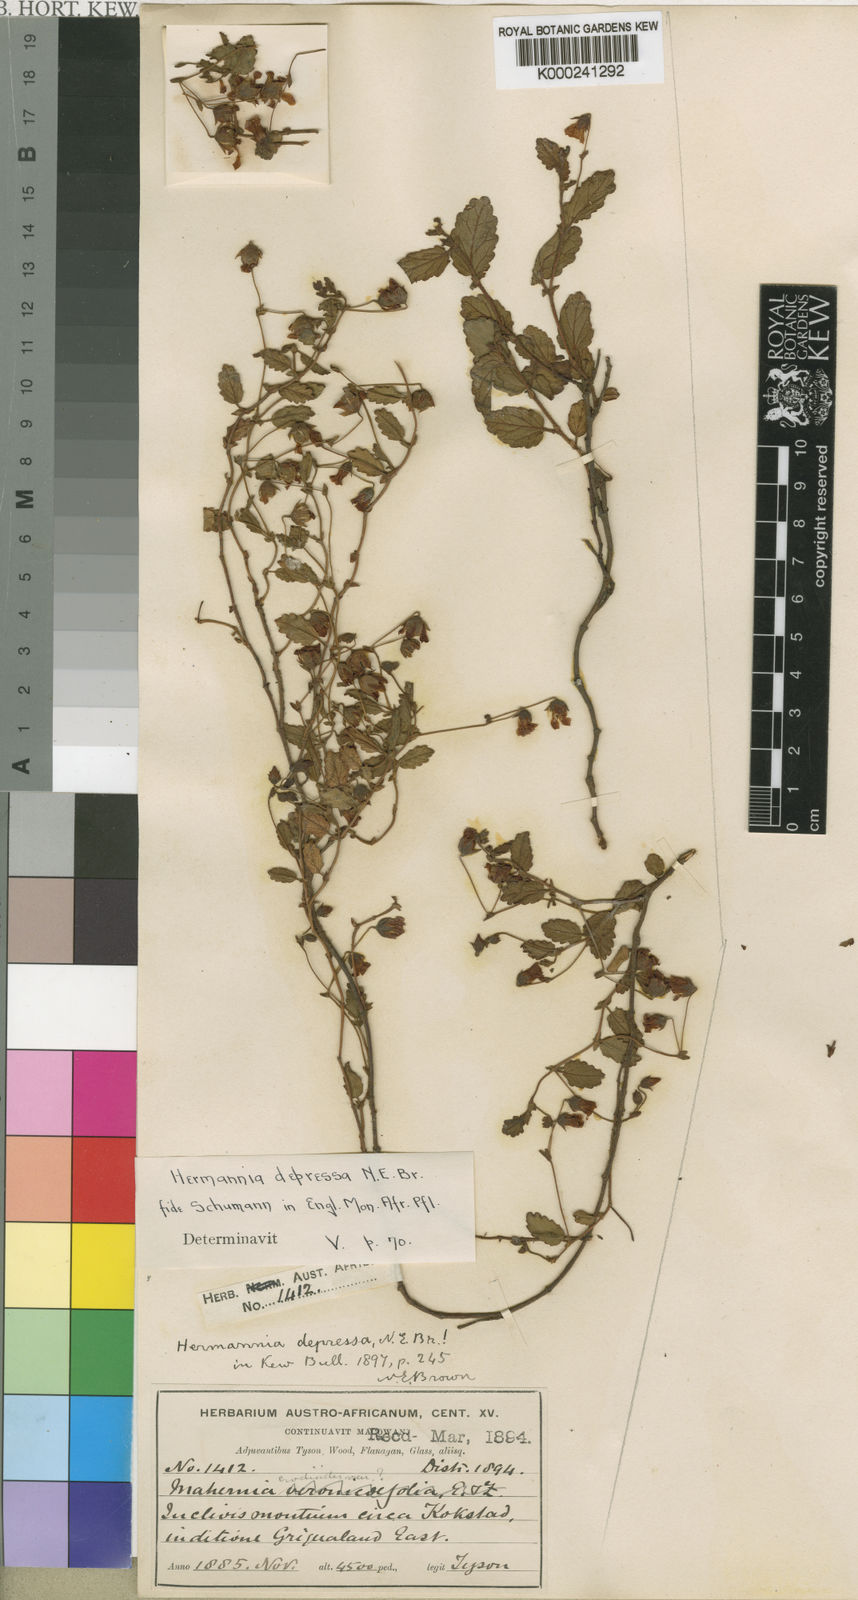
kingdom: Plantae
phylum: Tracheophyta
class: Magnoliopsida
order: Malvales
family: Malvaceae
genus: Hermannia
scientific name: Hermannia
